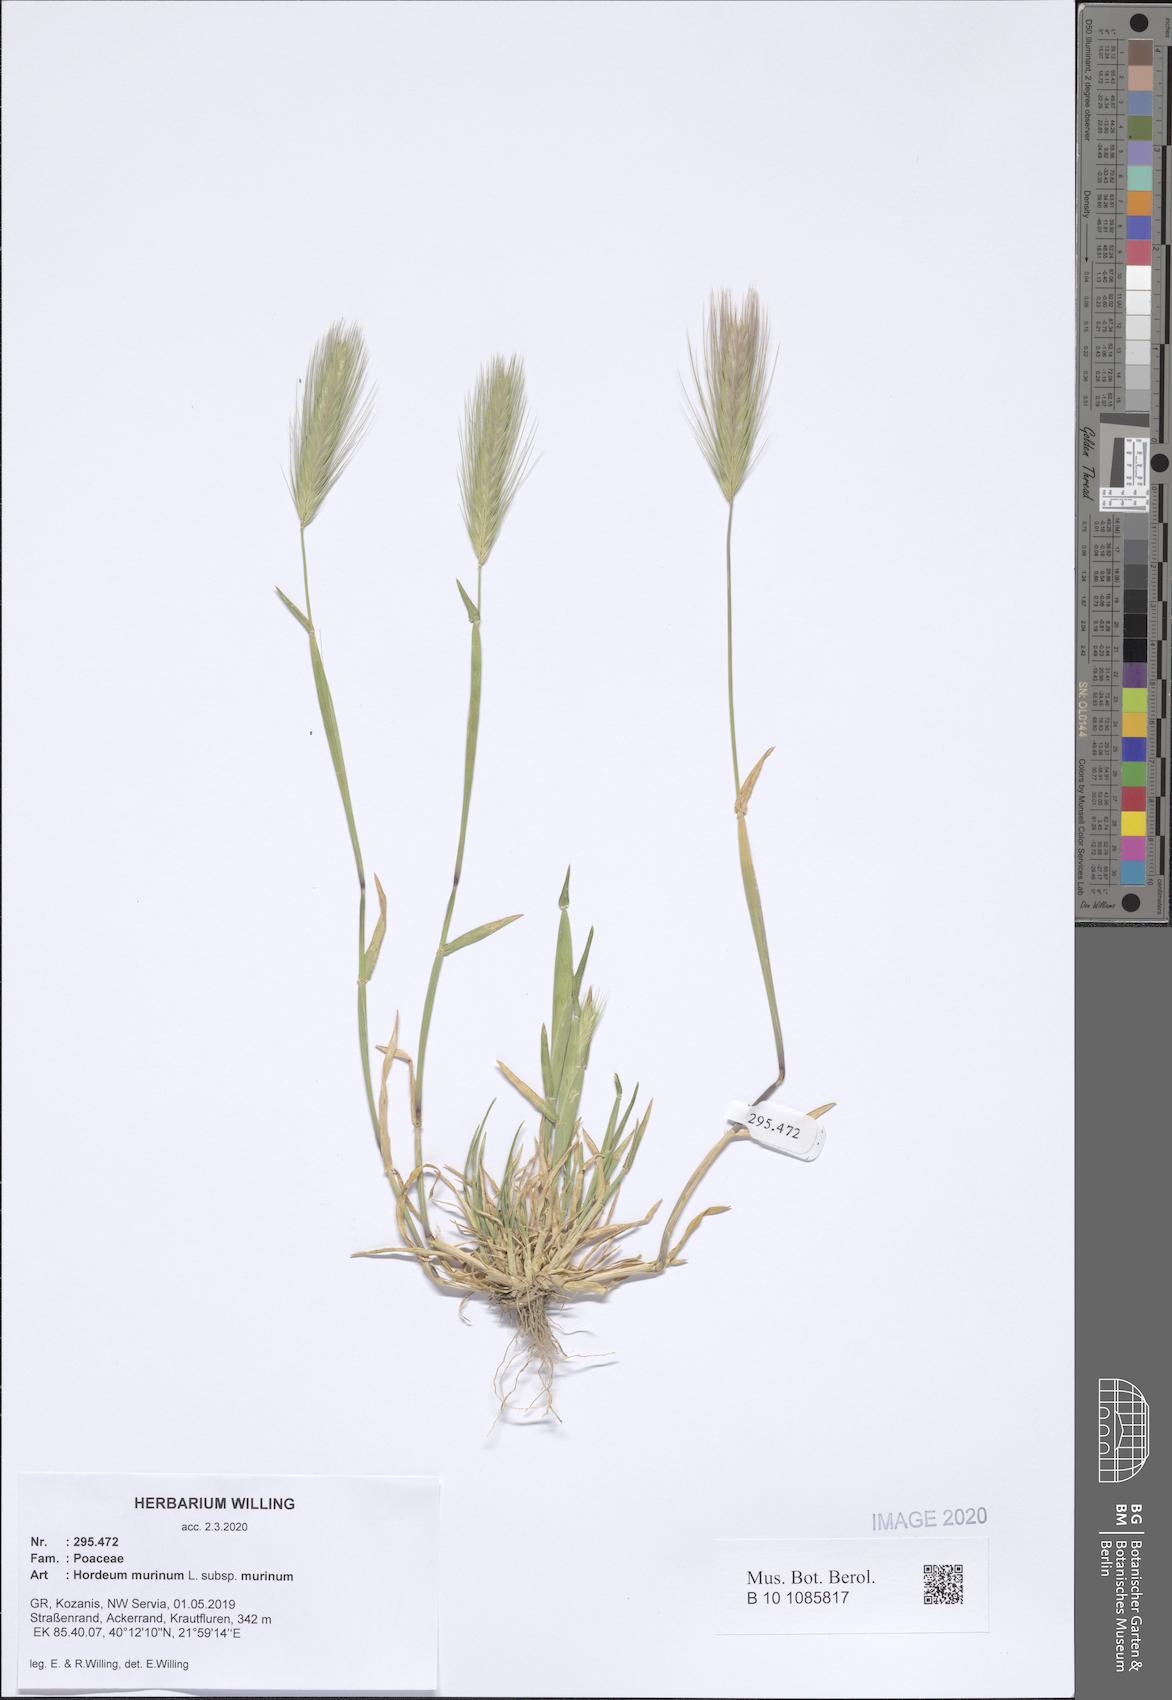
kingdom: Plantae
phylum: Tracheophyta
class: Liliopsida
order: Poales
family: Poaceae
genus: Hordeum
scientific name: Hordeum murinum
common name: Wall barley
